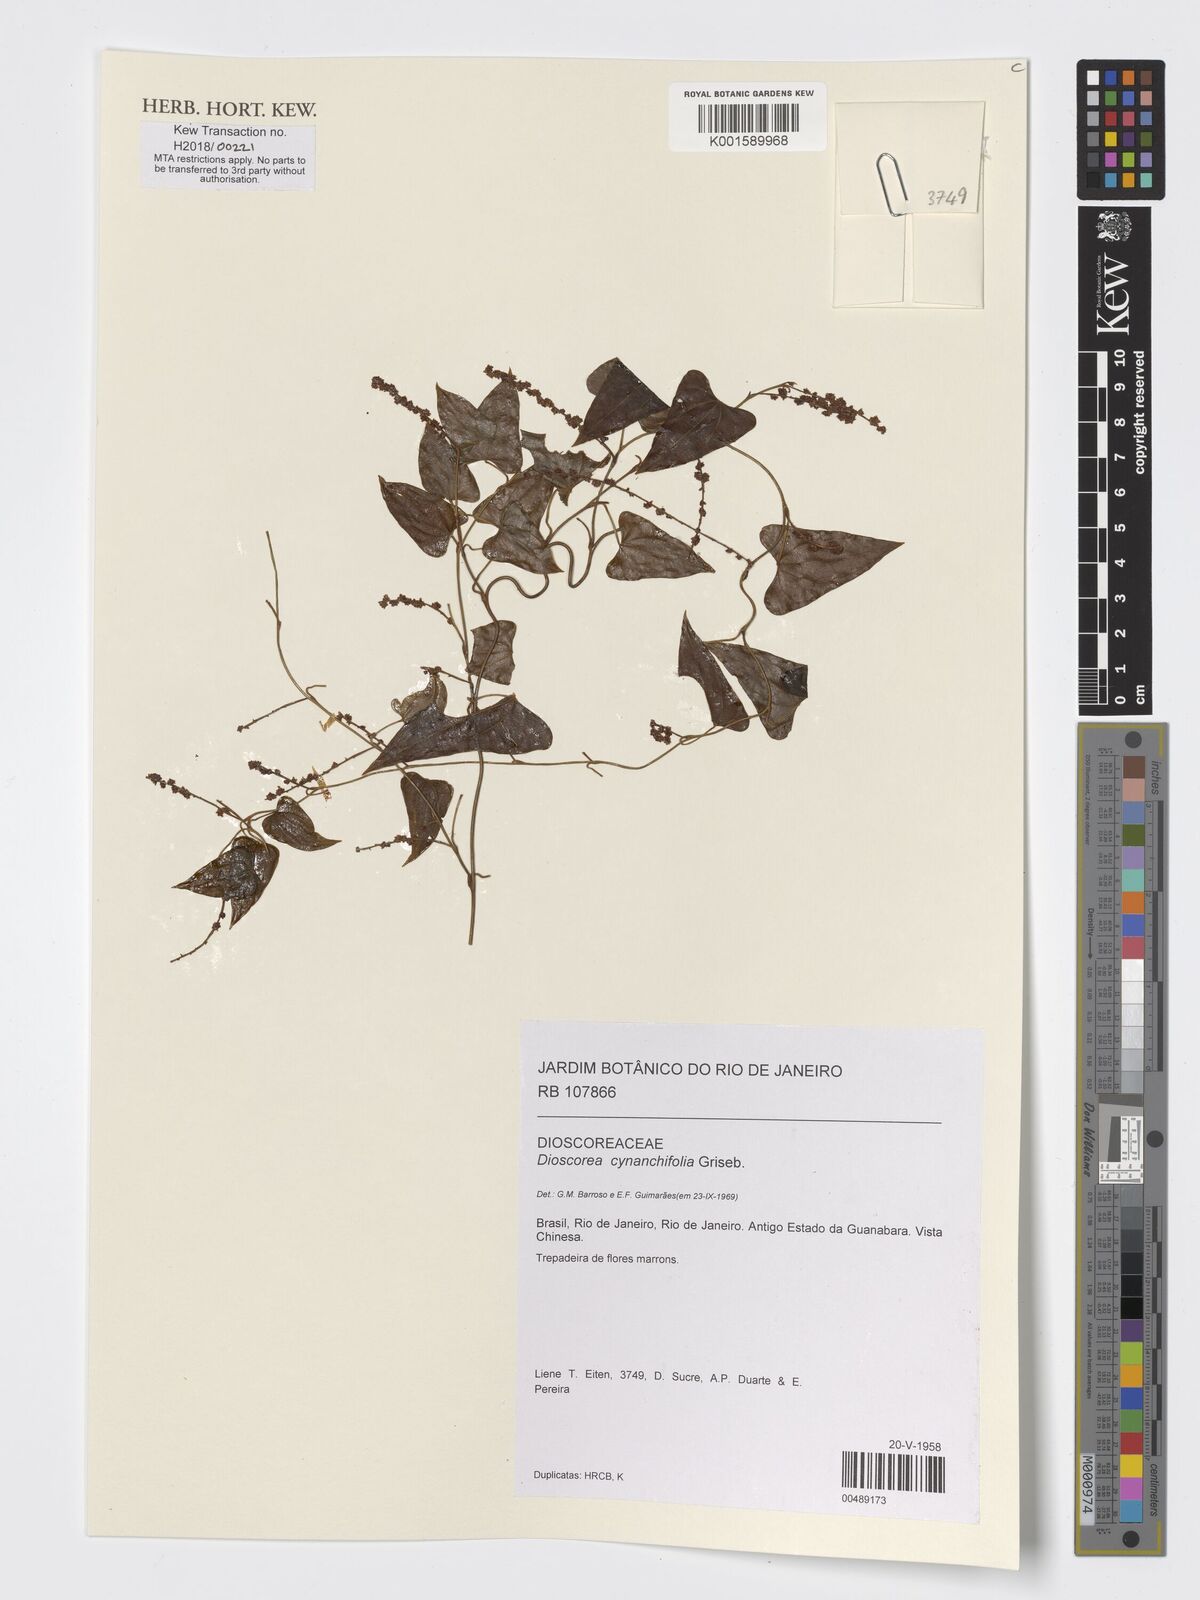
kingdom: Plantae
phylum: Tracheophyta
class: Liliopsida
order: Dioscoreales
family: Dioscoreaceae
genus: Dioscorea
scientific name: Dioscorea marginata
